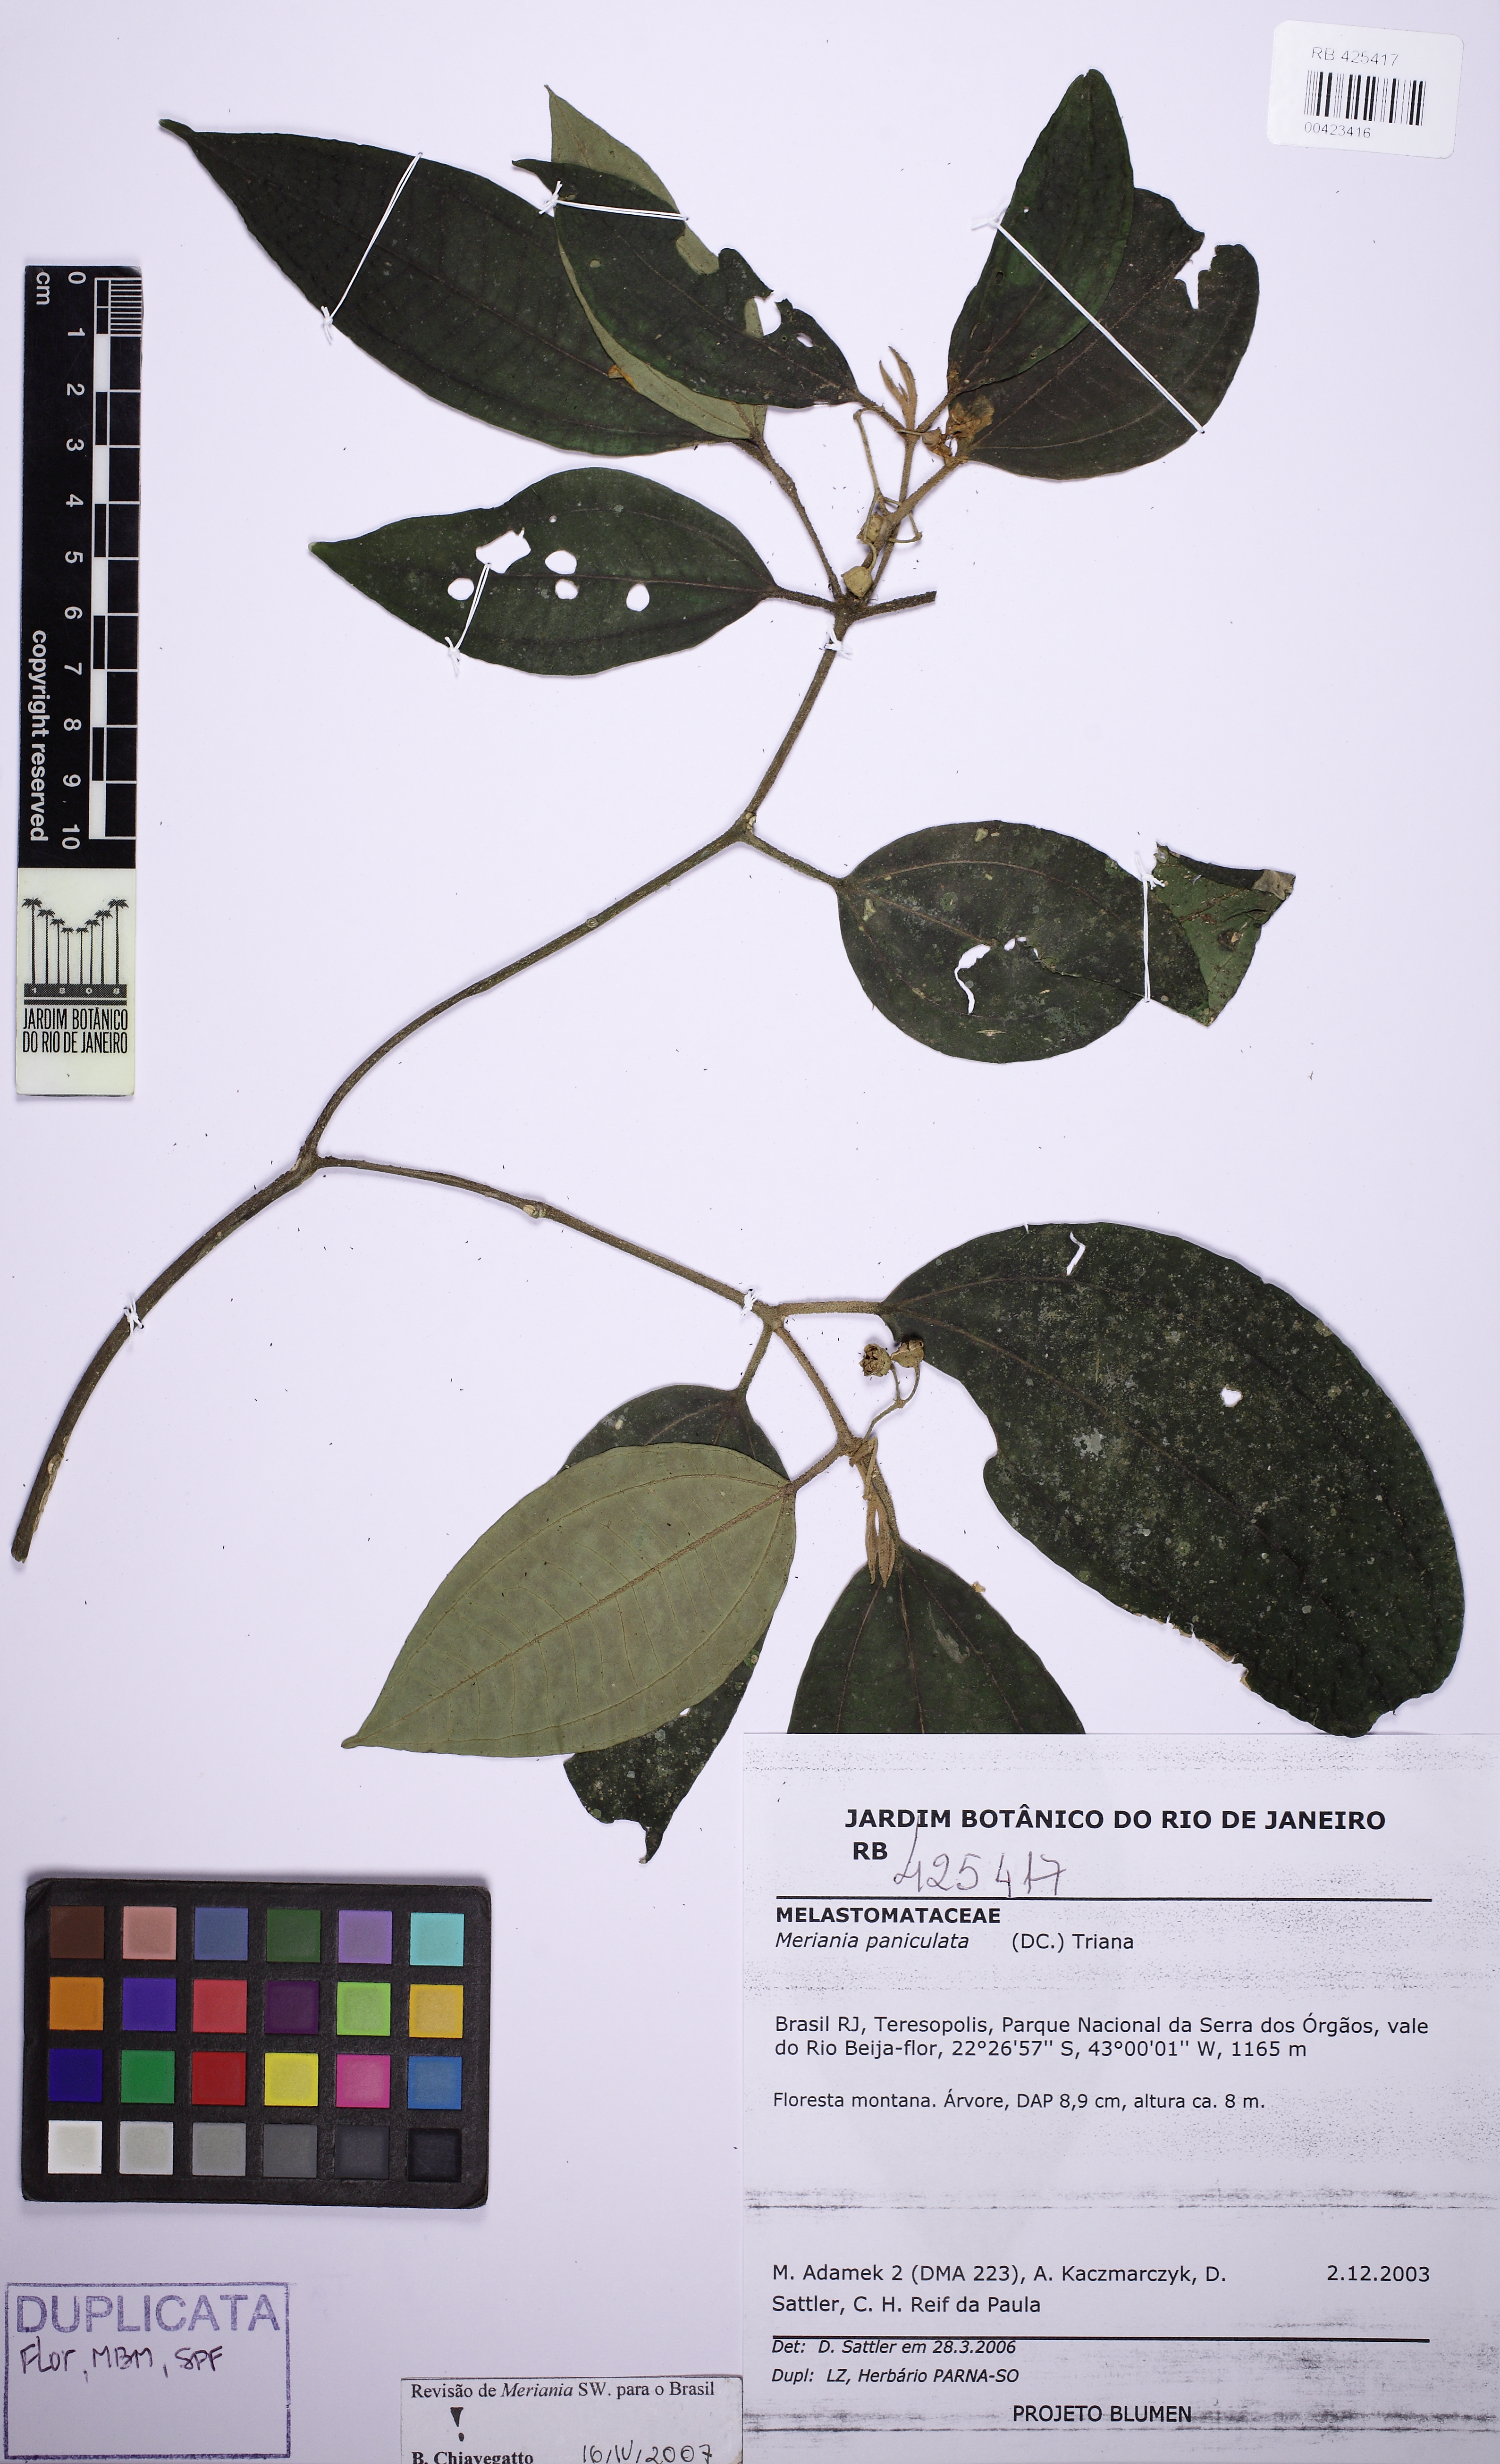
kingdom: Plantae
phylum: Tracheophyta
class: Magnoliopsida
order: Myrtales
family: Melastomataceae
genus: Meriania
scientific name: Meriania paniculata
